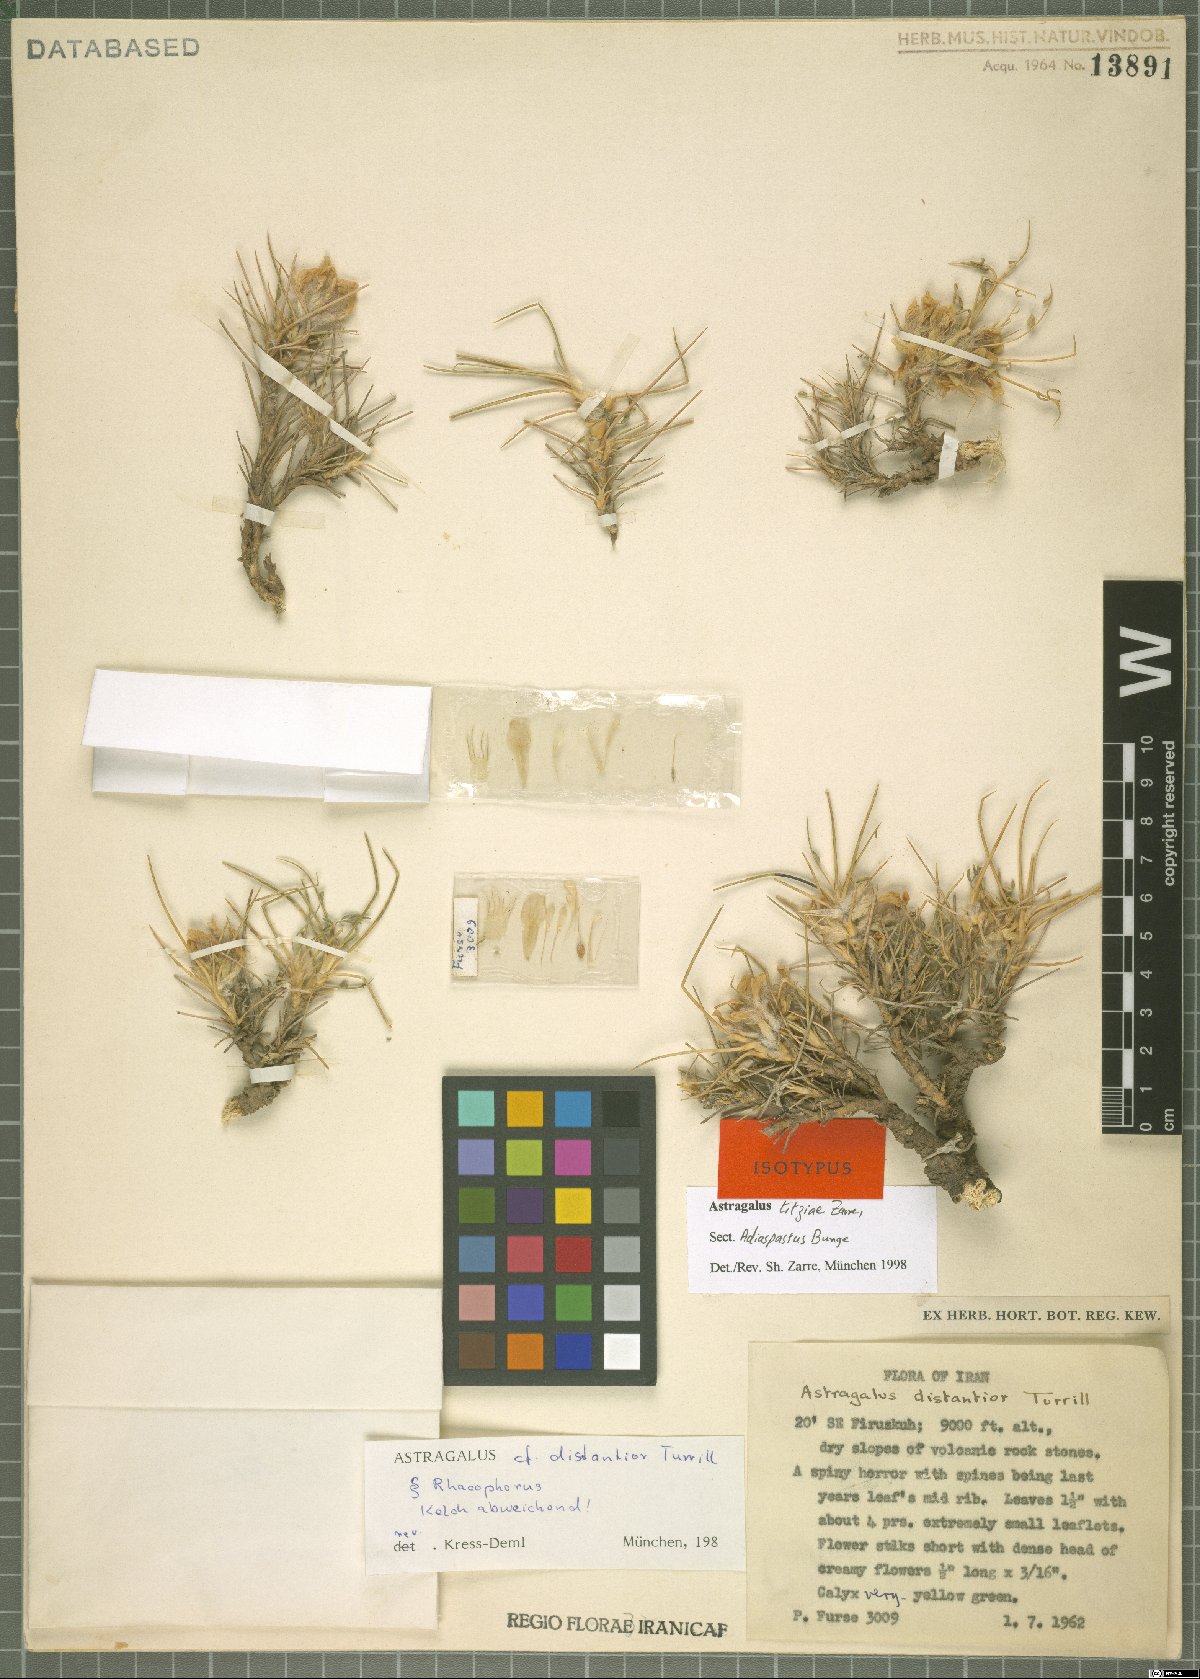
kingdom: Plantae
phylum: Tracheophyta
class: Magnoliopsida
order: Fabales
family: Fabaceae
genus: Astragalus
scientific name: Astragalus titzii
